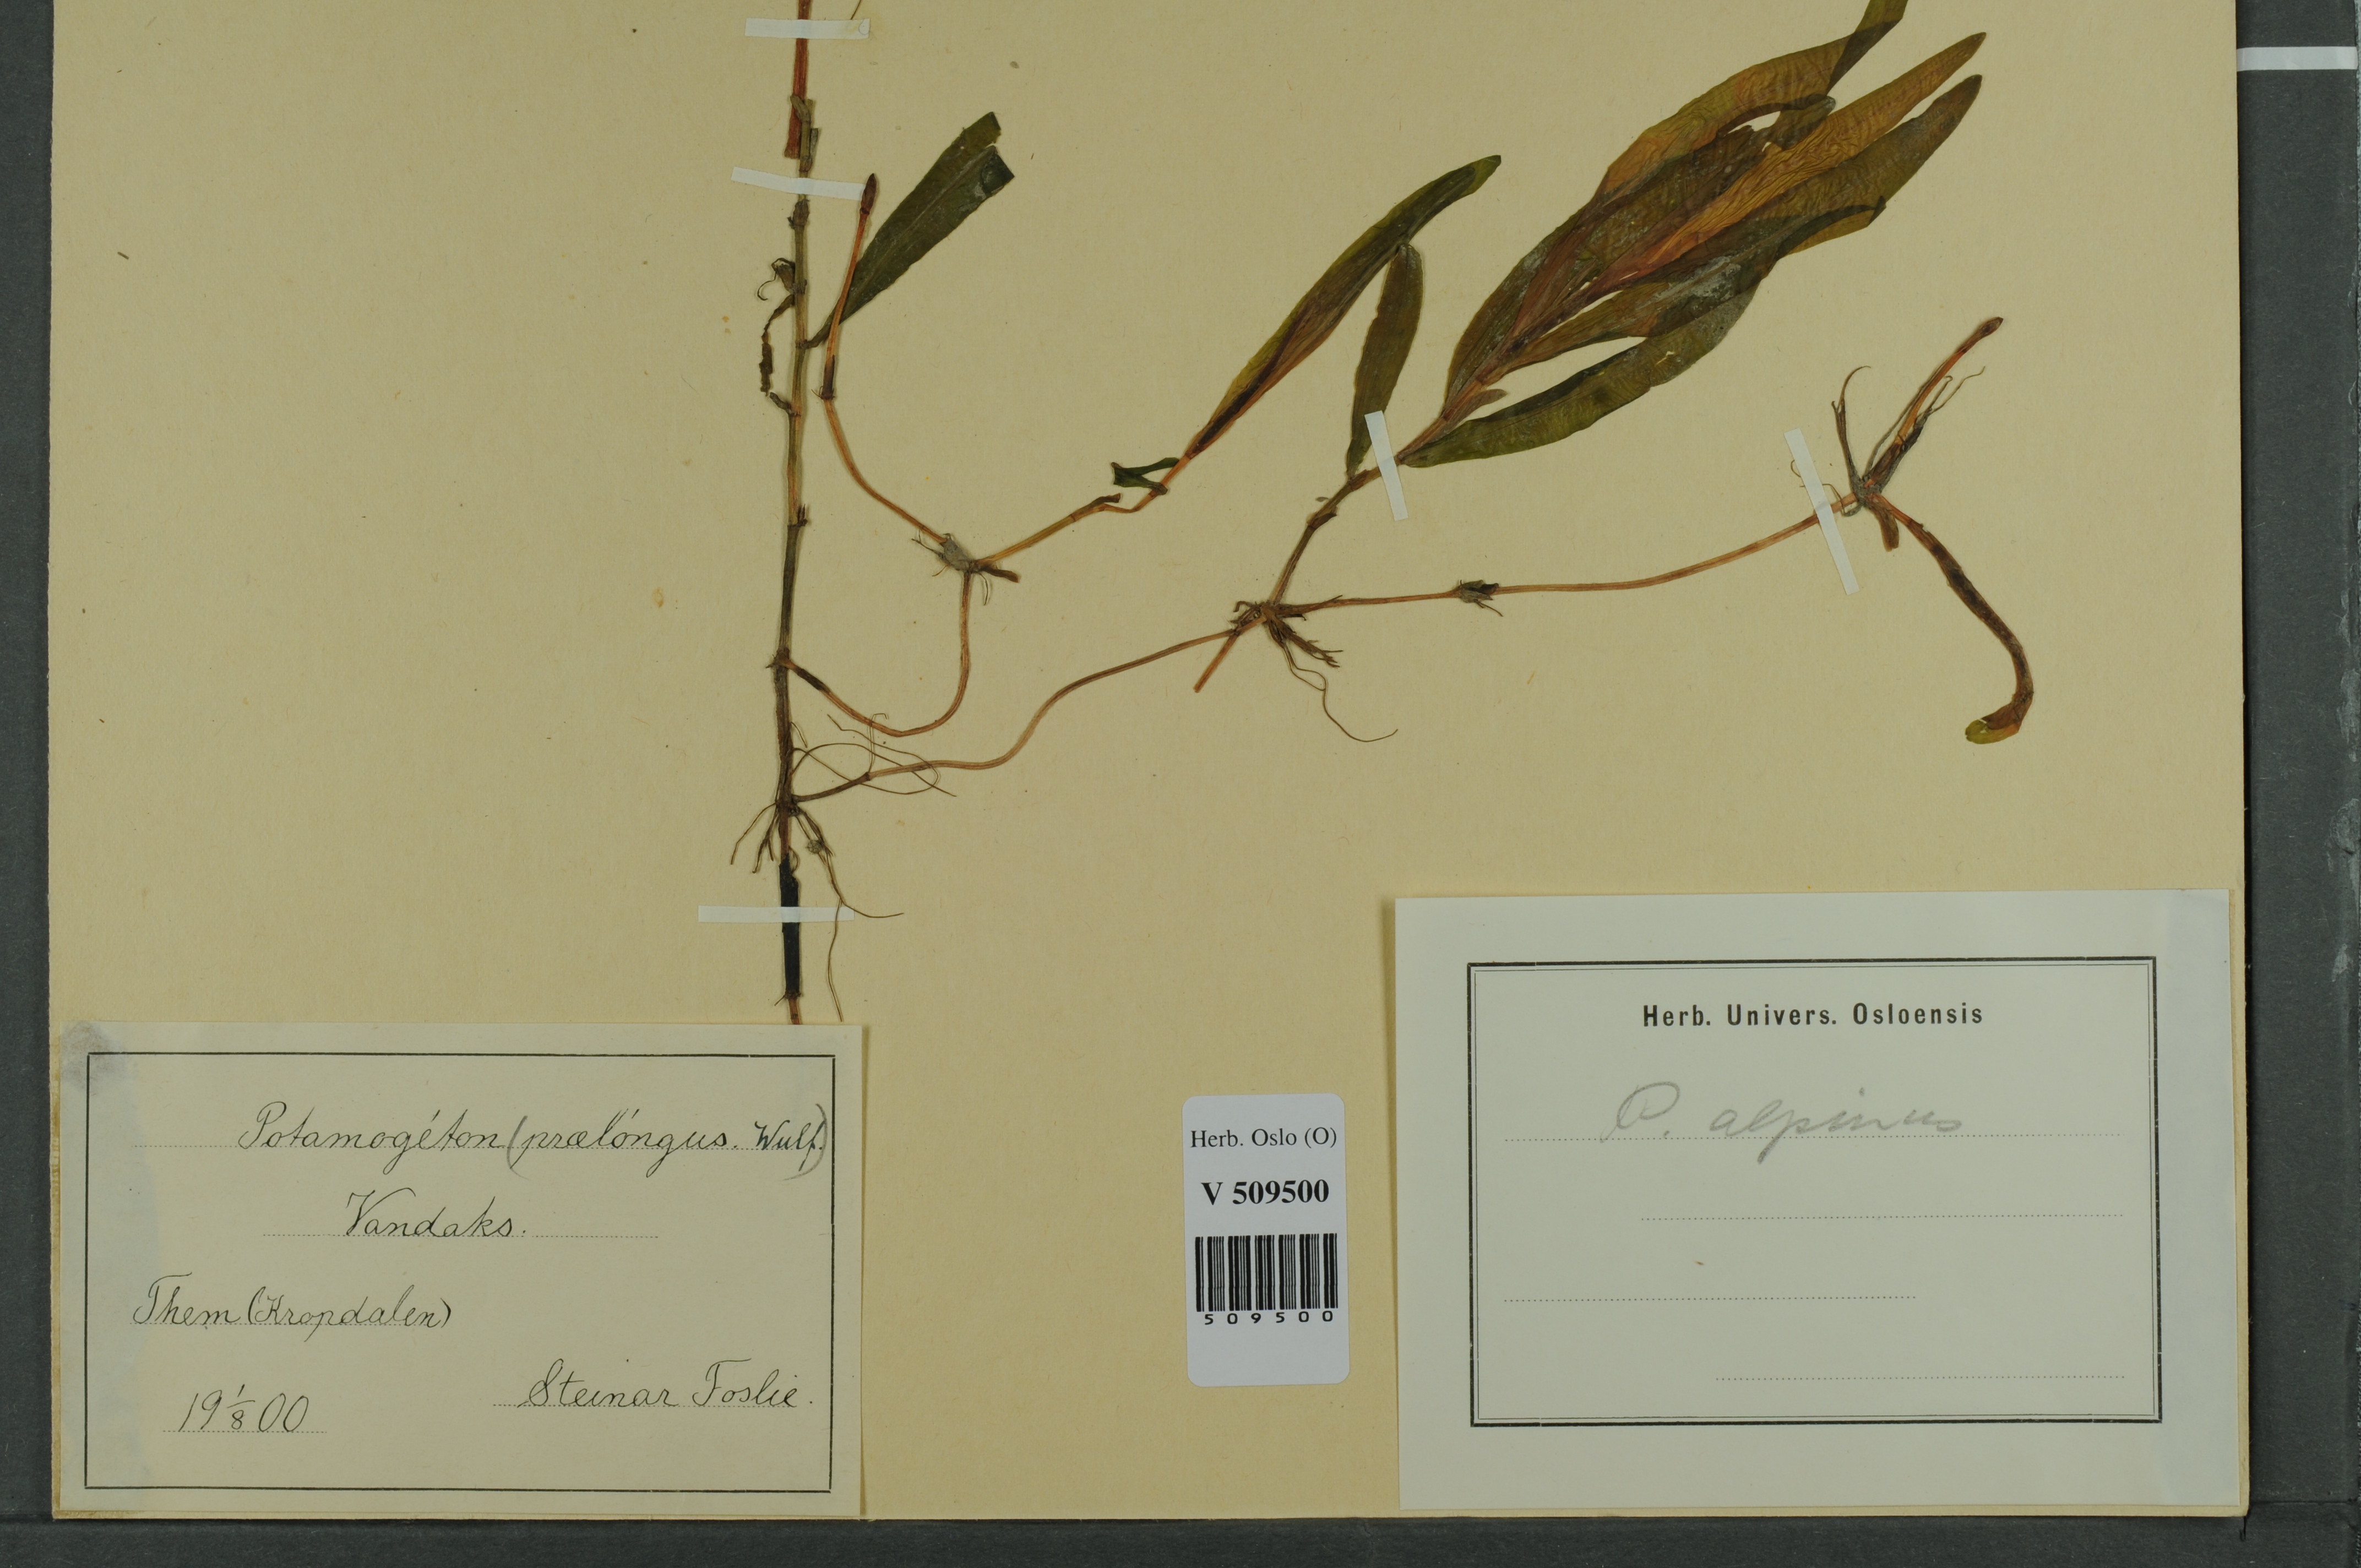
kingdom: Plantae
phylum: Tracheophyta
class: Liliopsida
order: Alismatales
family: Potamogetonaceae
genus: Potamogeton
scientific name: Potamogeton alpinus
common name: Red pondweed
